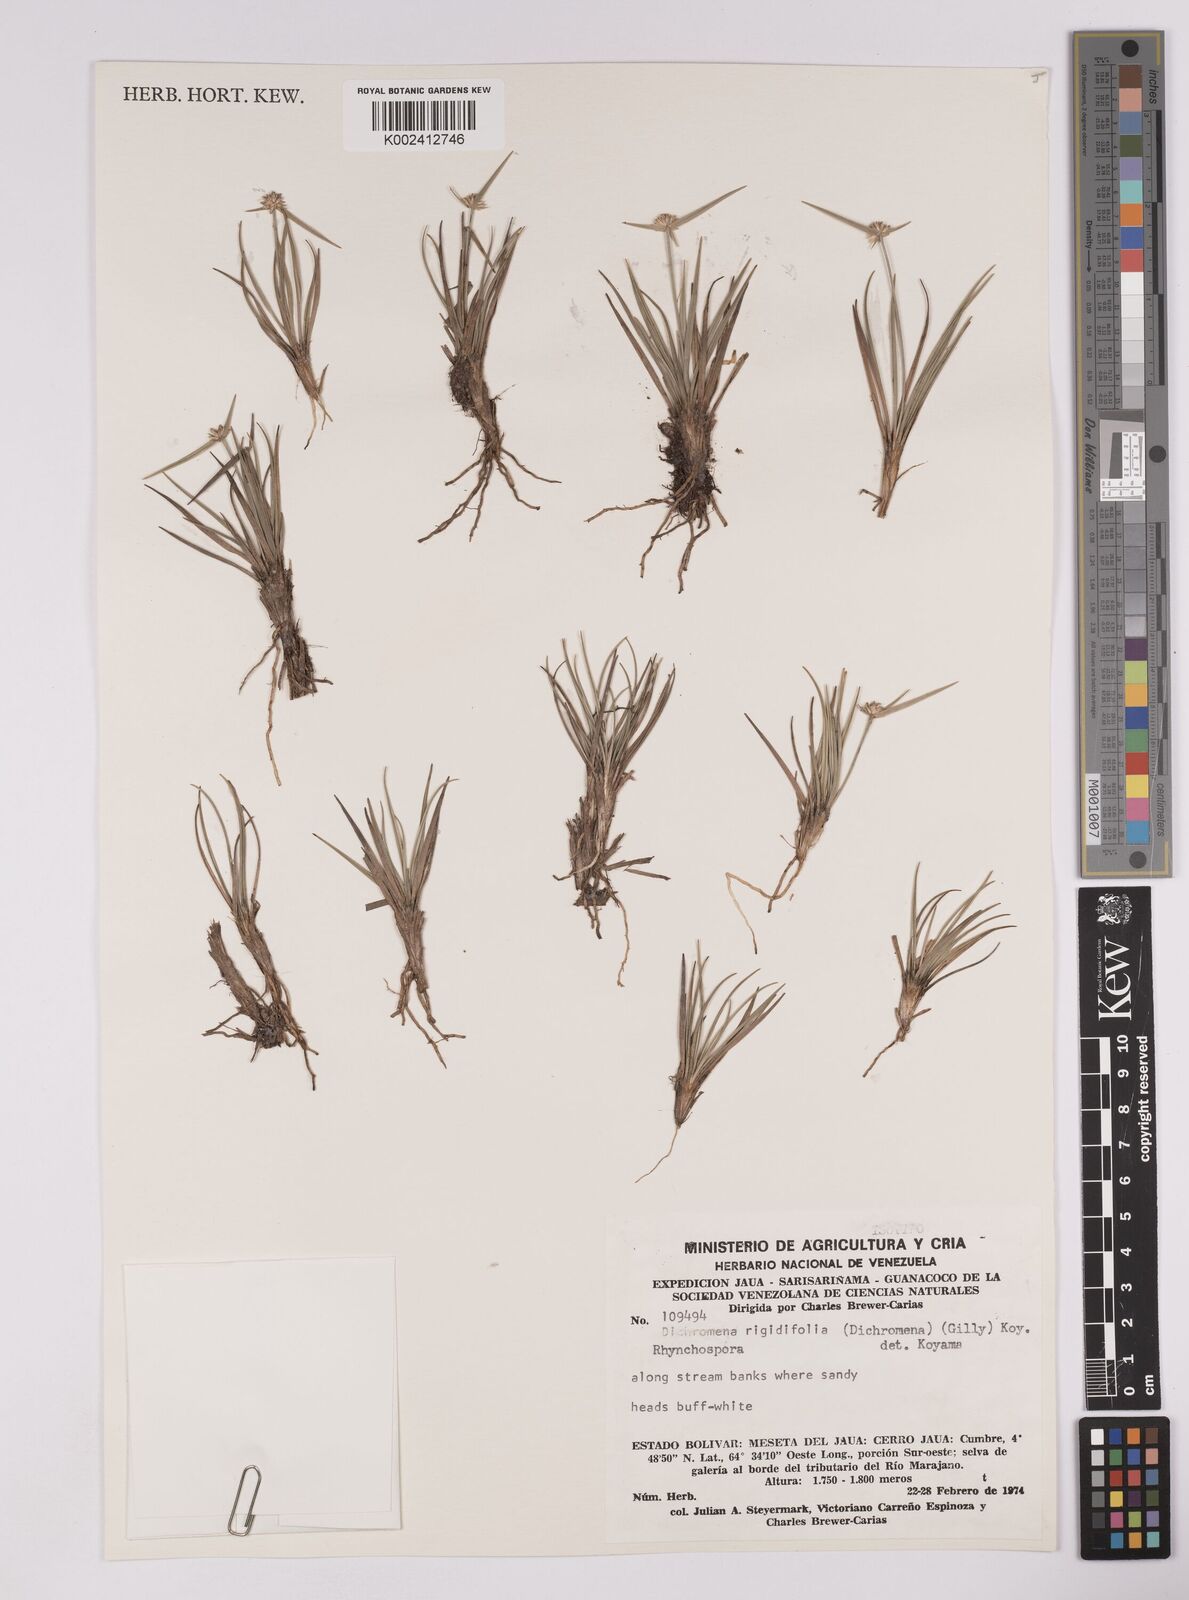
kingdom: Plantae
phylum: Tracheophyta
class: Liliopsida
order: Poales
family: Cyperaceae
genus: Rhynchospora
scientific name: Rhynchospora rigidifolia
